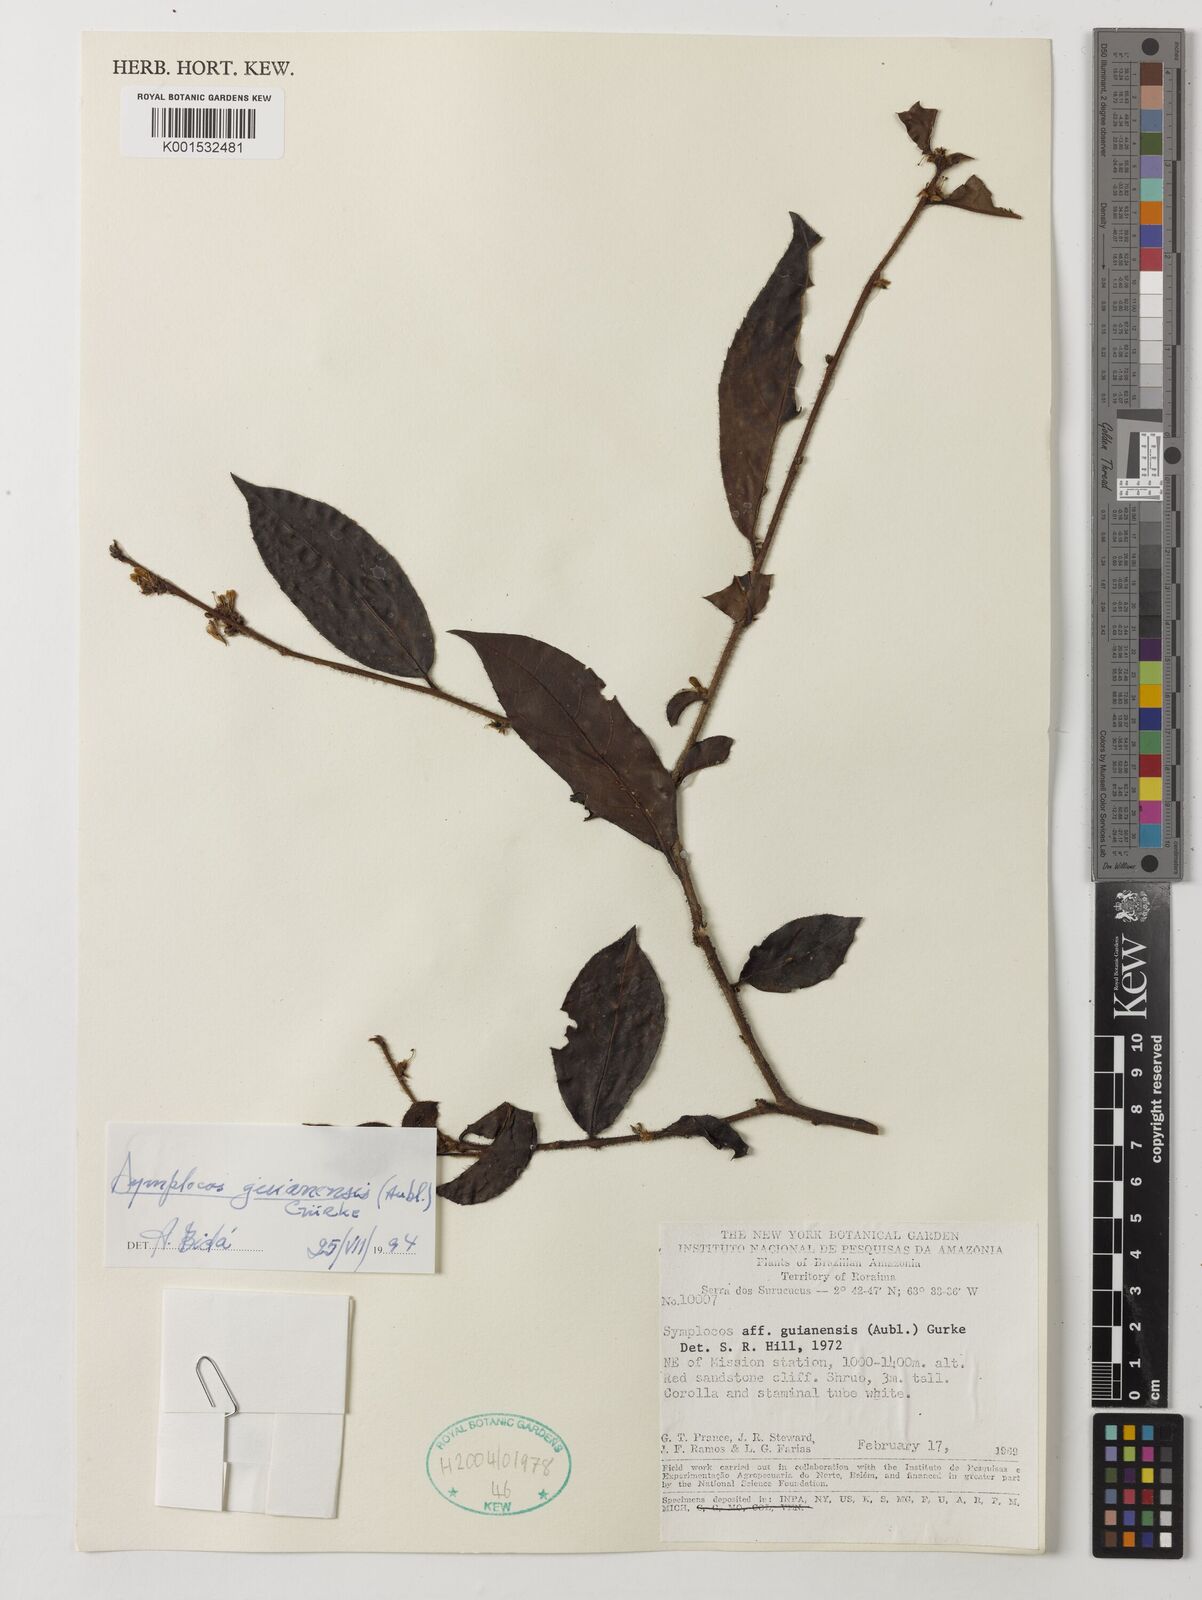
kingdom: Plantae
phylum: Tracheophyta
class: Magnoliopsida
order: Ericales
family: Symplocaceae
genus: Symplocos
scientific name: Symplocos guianensis
